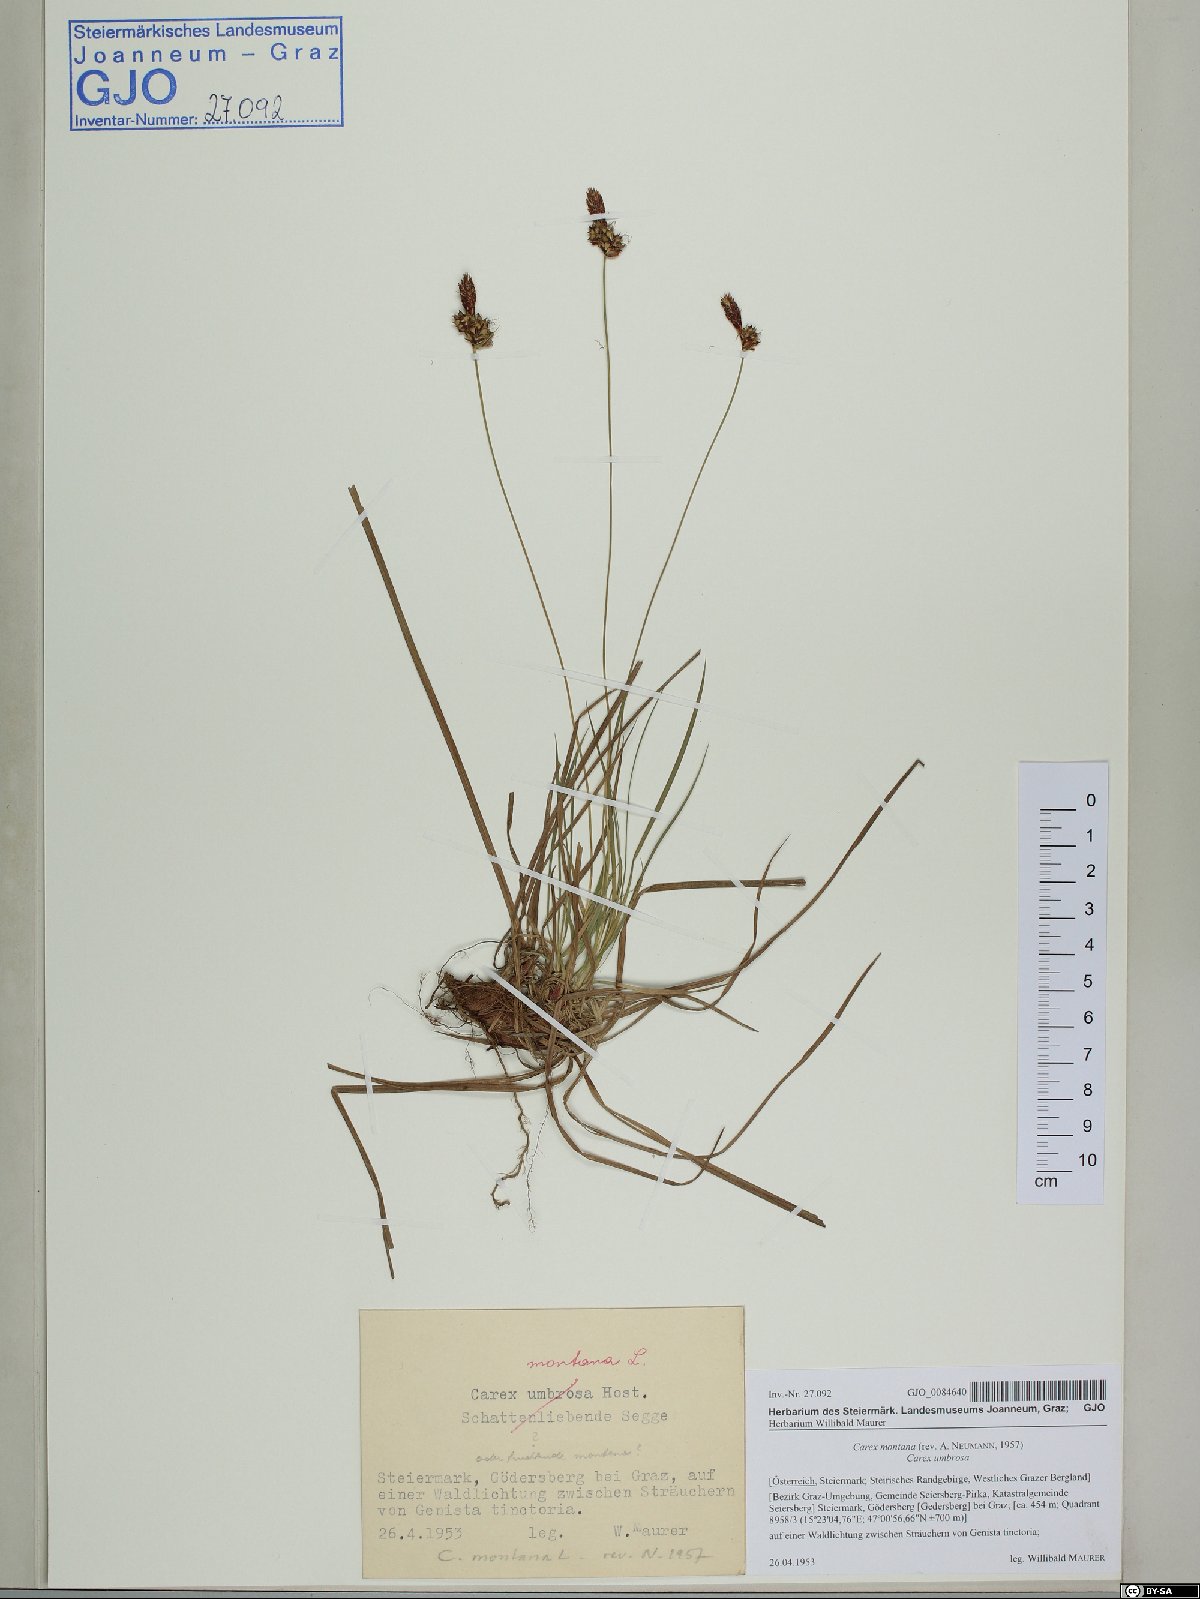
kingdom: Plantae
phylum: Tracheophyta
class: Liliopsida
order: Poales
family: Cyperaceae
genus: Carex
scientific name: Carex montana
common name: Soft-leaved sedge
